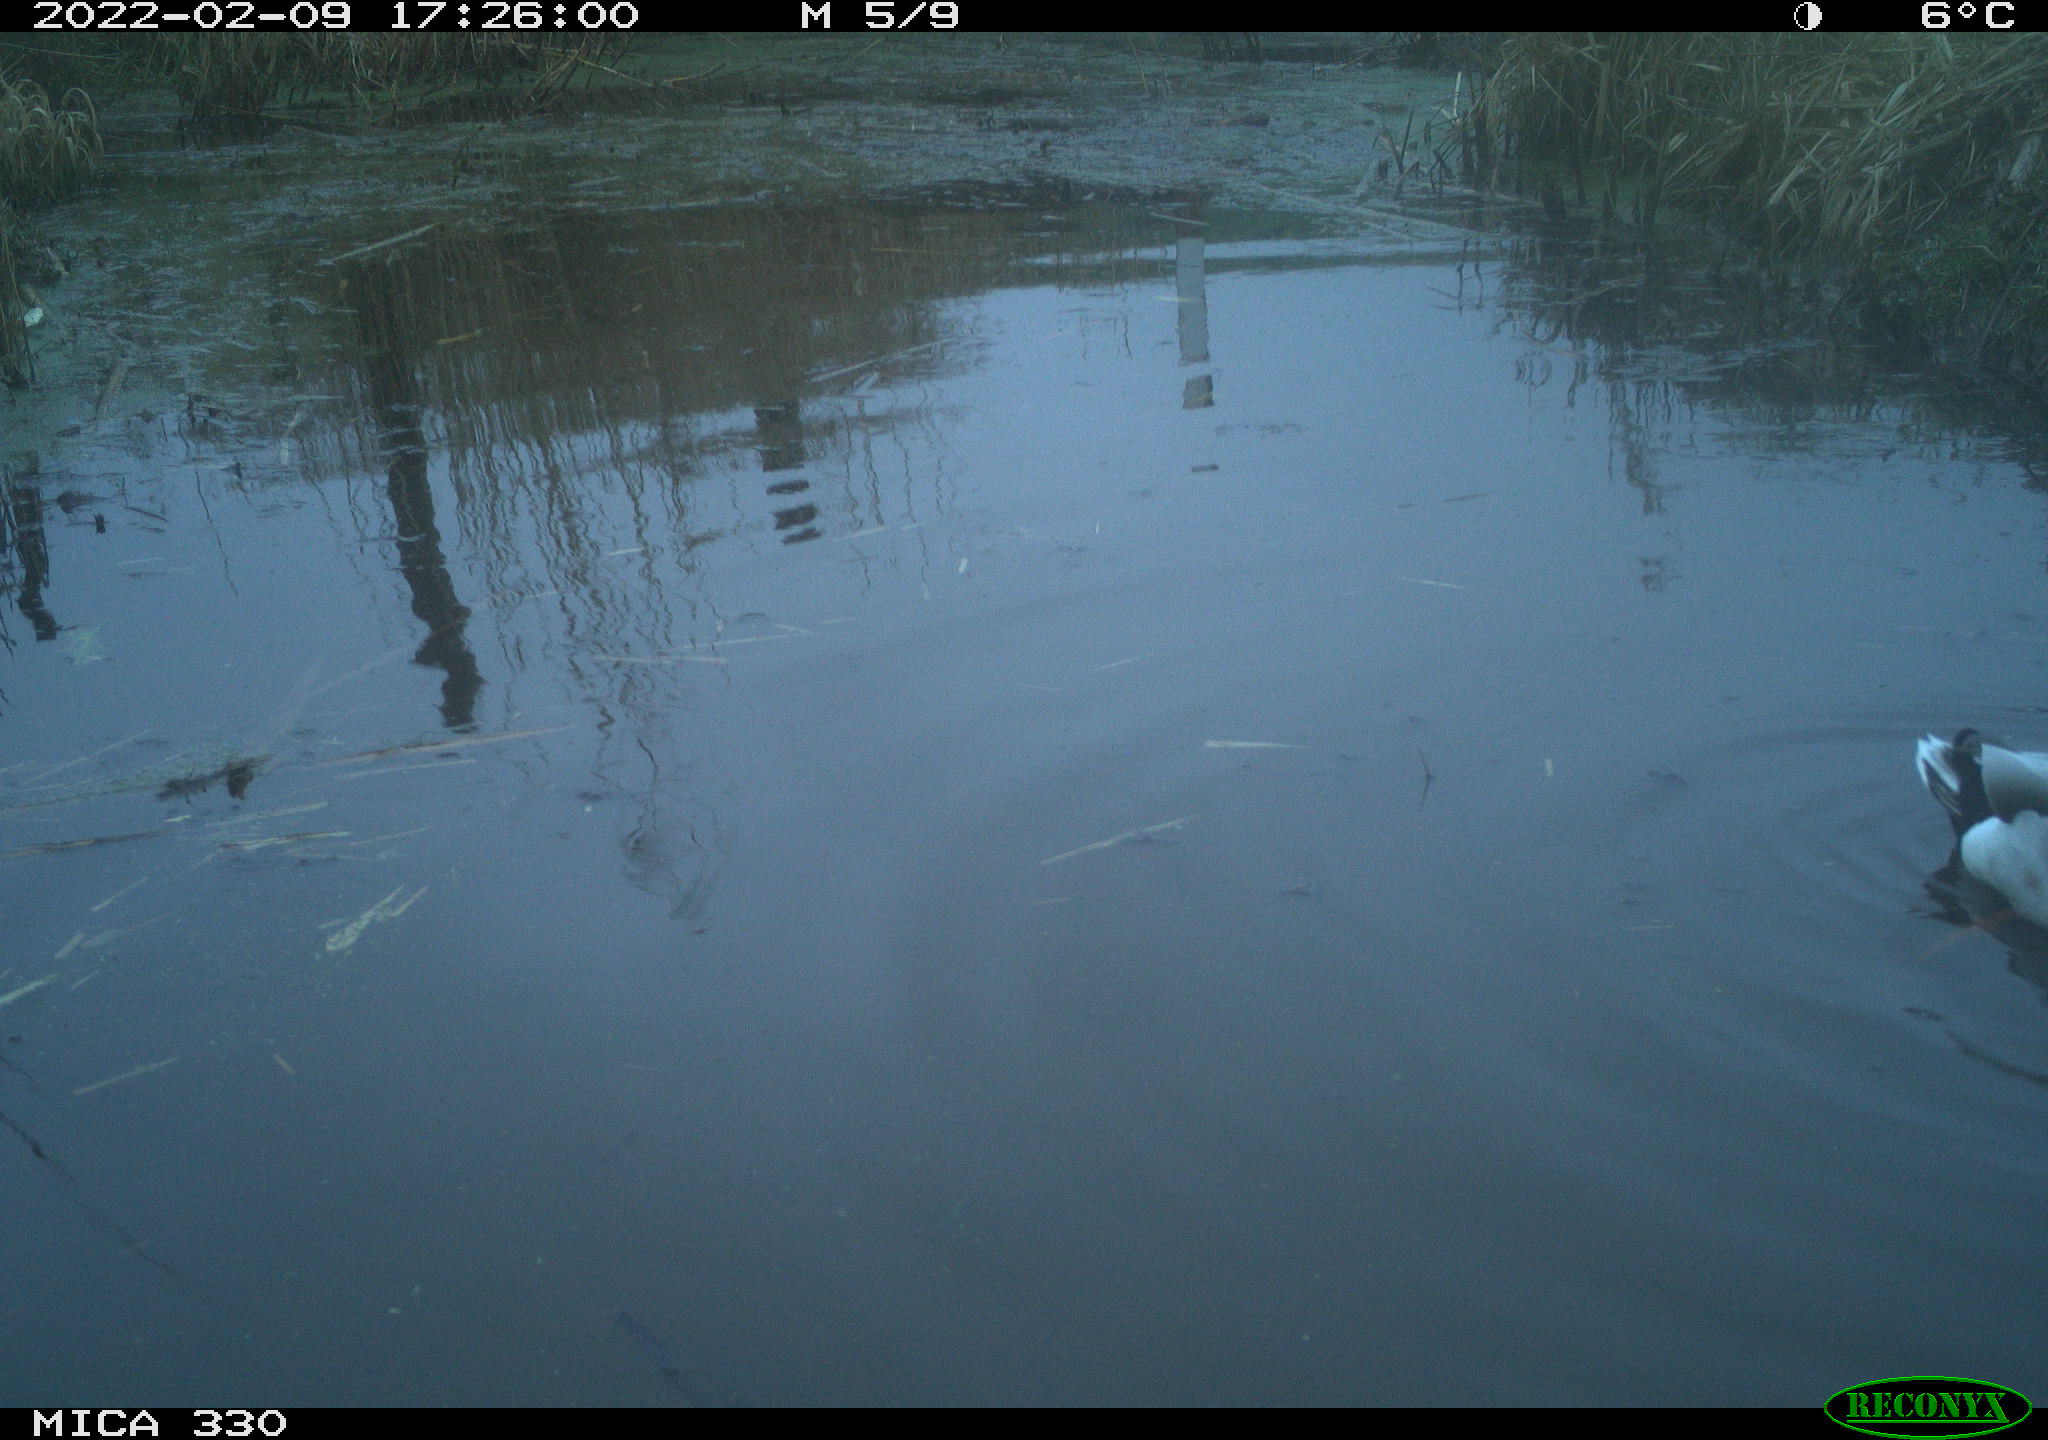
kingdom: Animalia
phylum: Chordata
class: Aves
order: Anseriformes
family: Anatidae
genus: Anas
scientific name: Anas platyrhynchos
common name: Mallard
